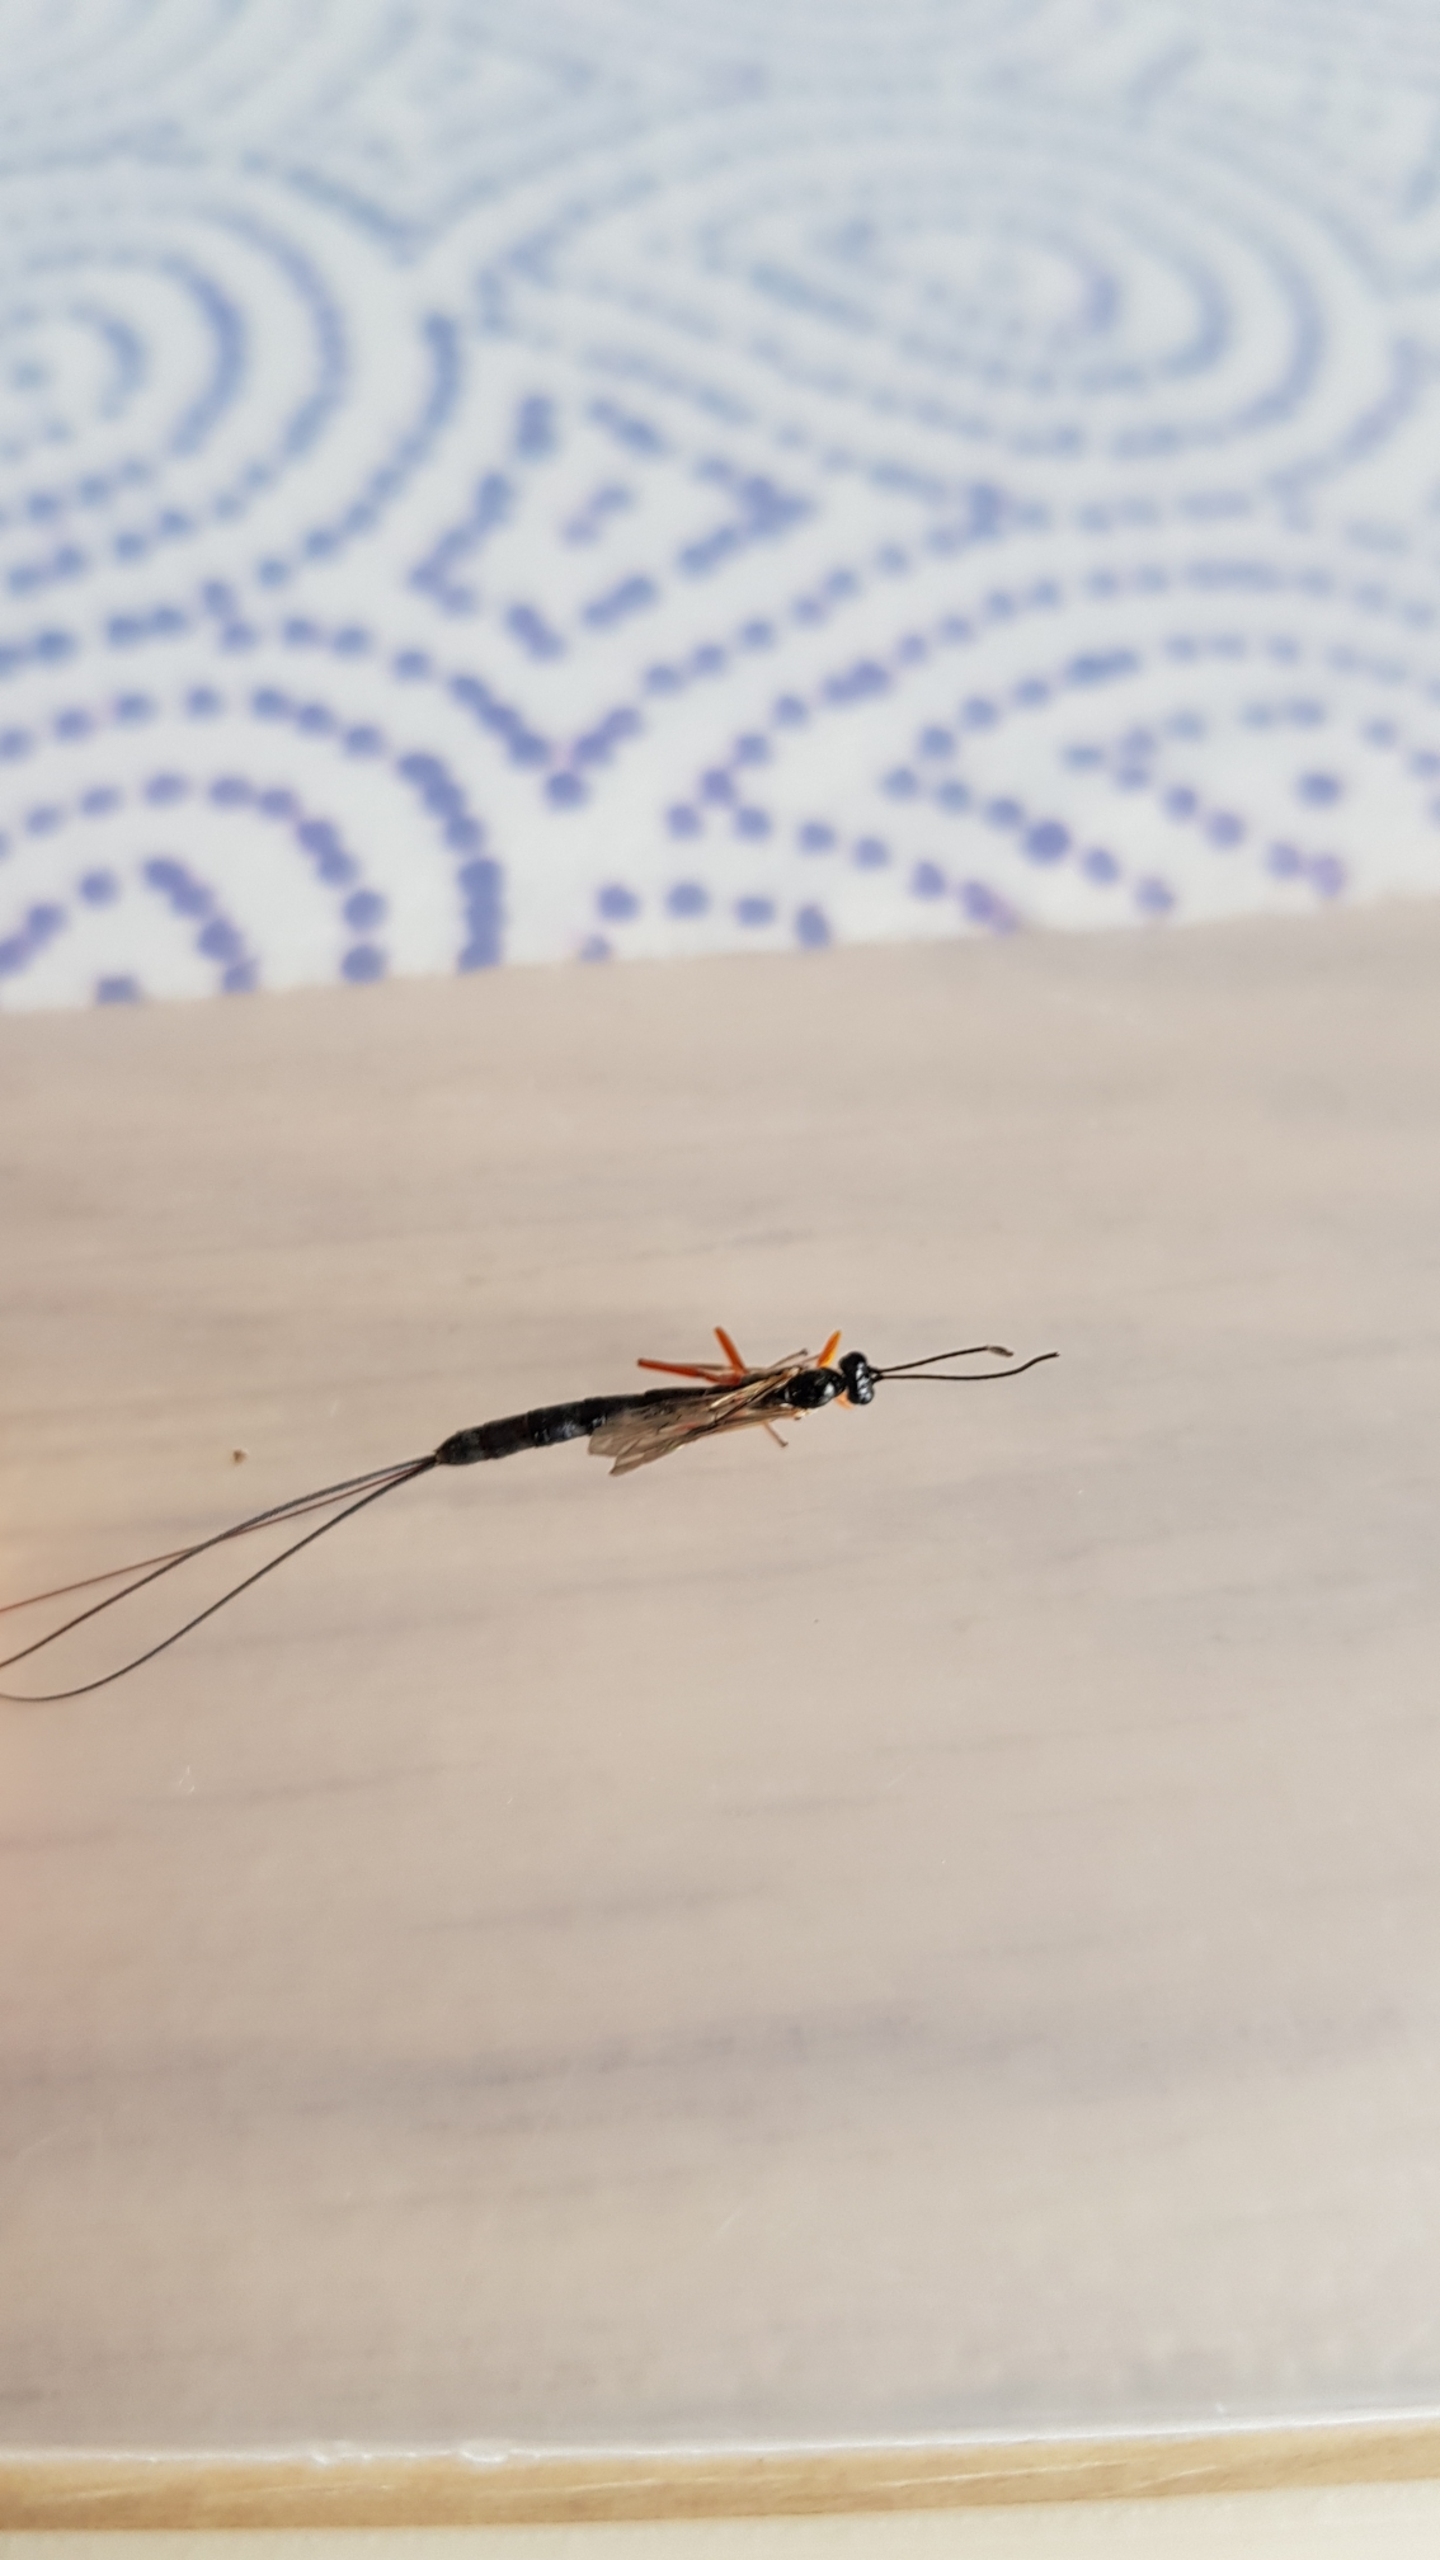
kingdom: Animalia
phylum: Arthropoda
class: Insecta
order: Hymenoptera
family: Ichneumonidae
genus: Ephialtes
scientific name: Ephialtes
